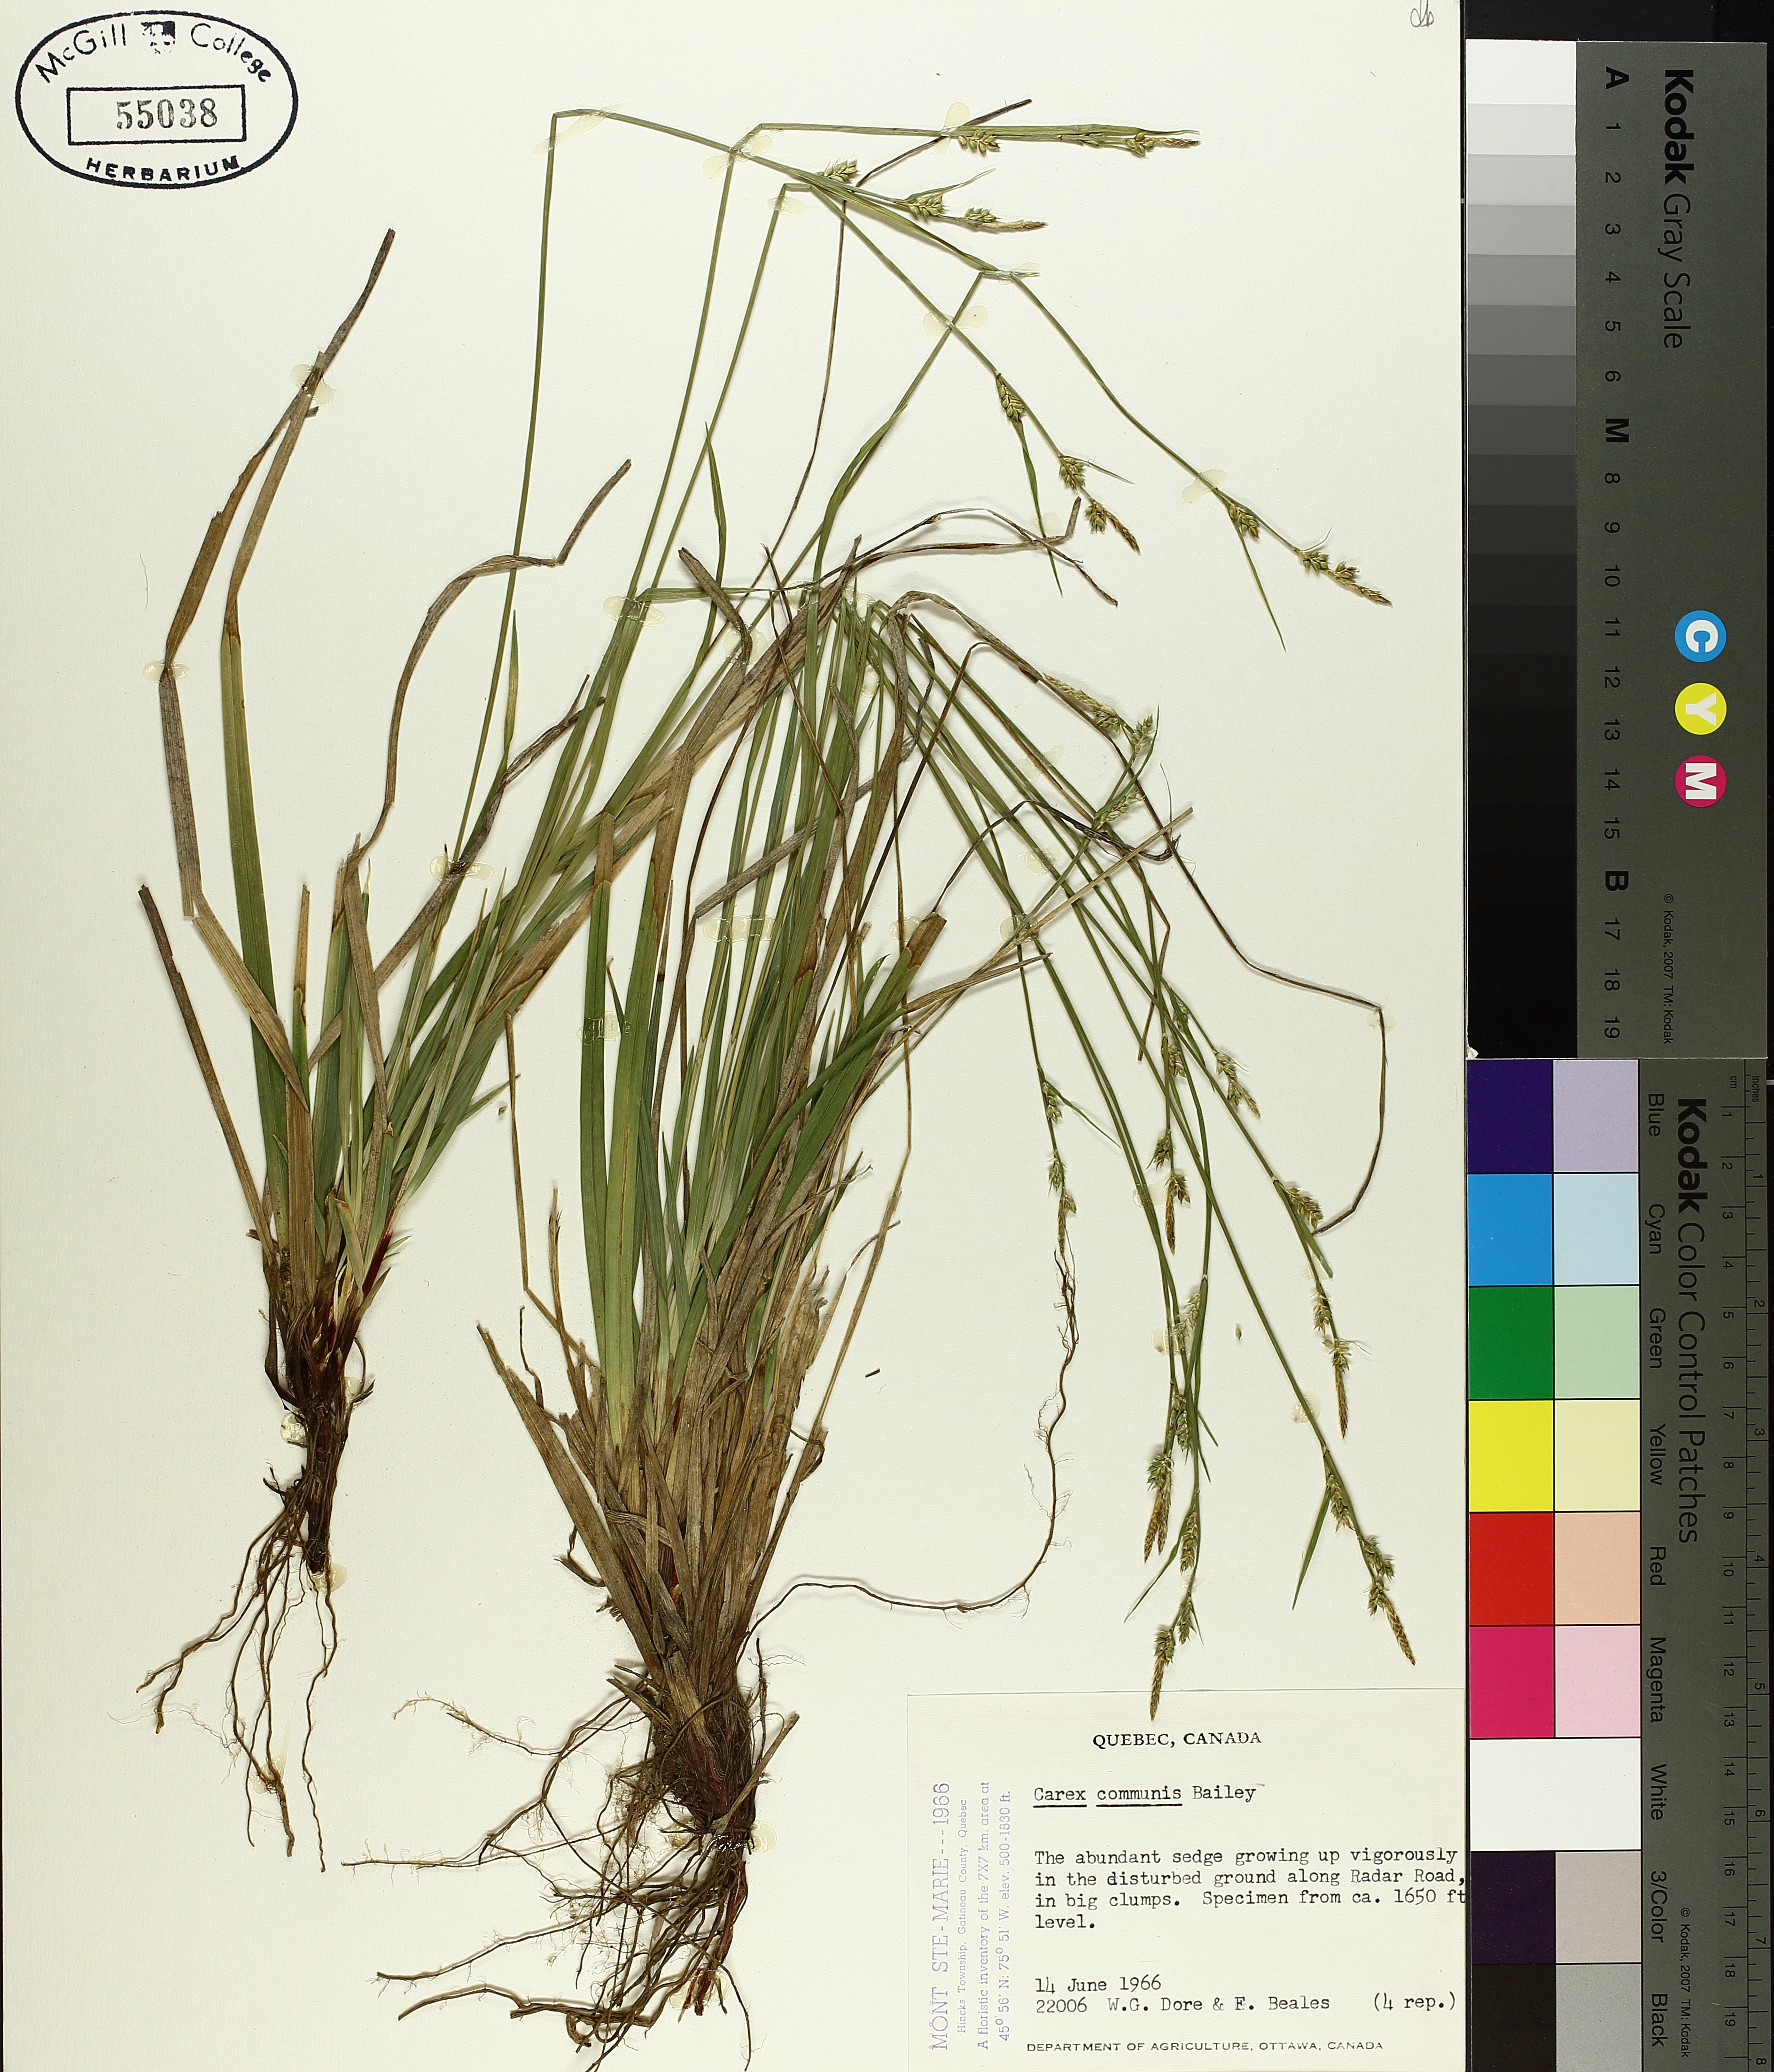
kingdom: Plantae
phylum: Tracheophyta
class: Liliopsida
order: Poales
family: Cyperaceae
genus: Carex
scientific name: Carex communis
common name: Colonial oak sedge
